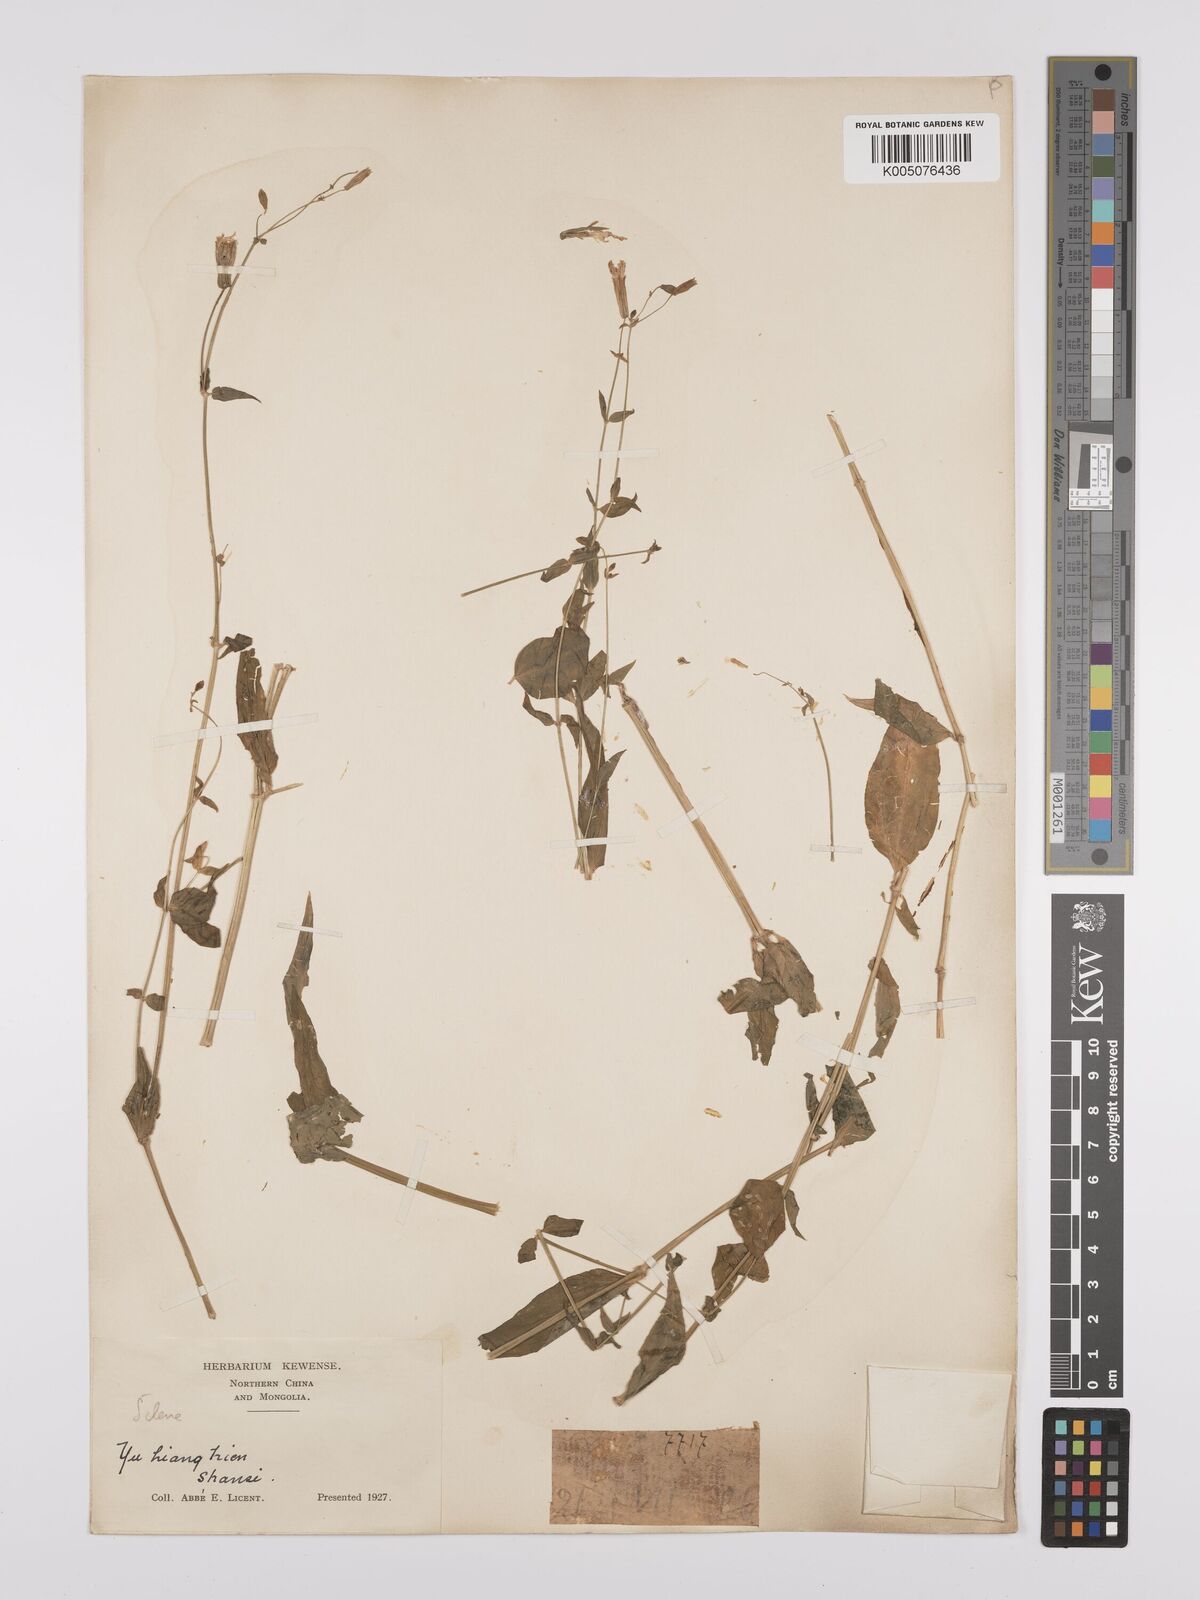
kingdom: Plantae
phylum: Tracheophyta
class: Magnoliopsida
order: Caryophyllales
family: Caryophyllaceae
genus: Silene
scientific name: Silene
